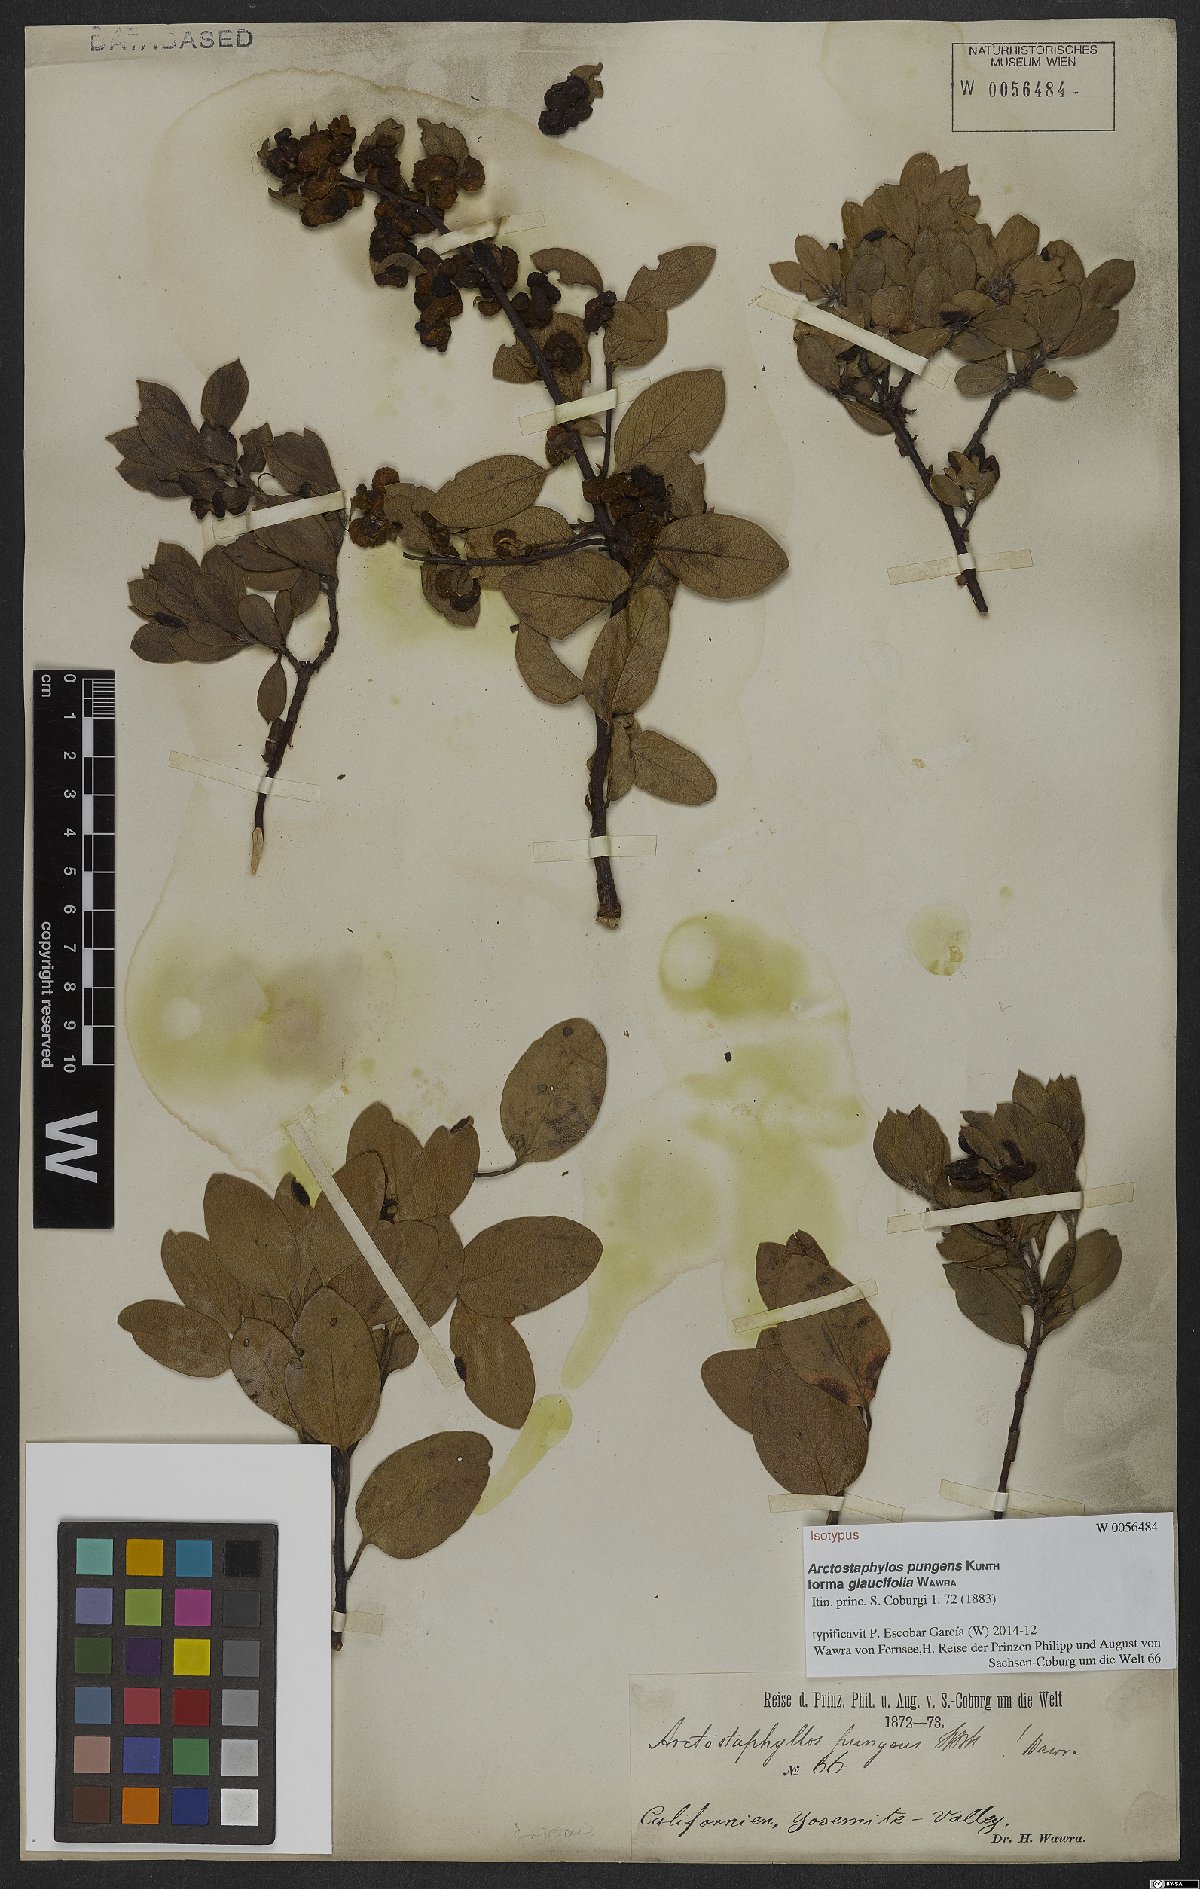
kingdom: Plantae
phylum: Tracheophyta
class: Magnoliopsida
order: Ericales
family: Ericaceae
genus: Arctostaphylos
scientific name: Arctostaphylos pungens
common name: Mexican manzanita
